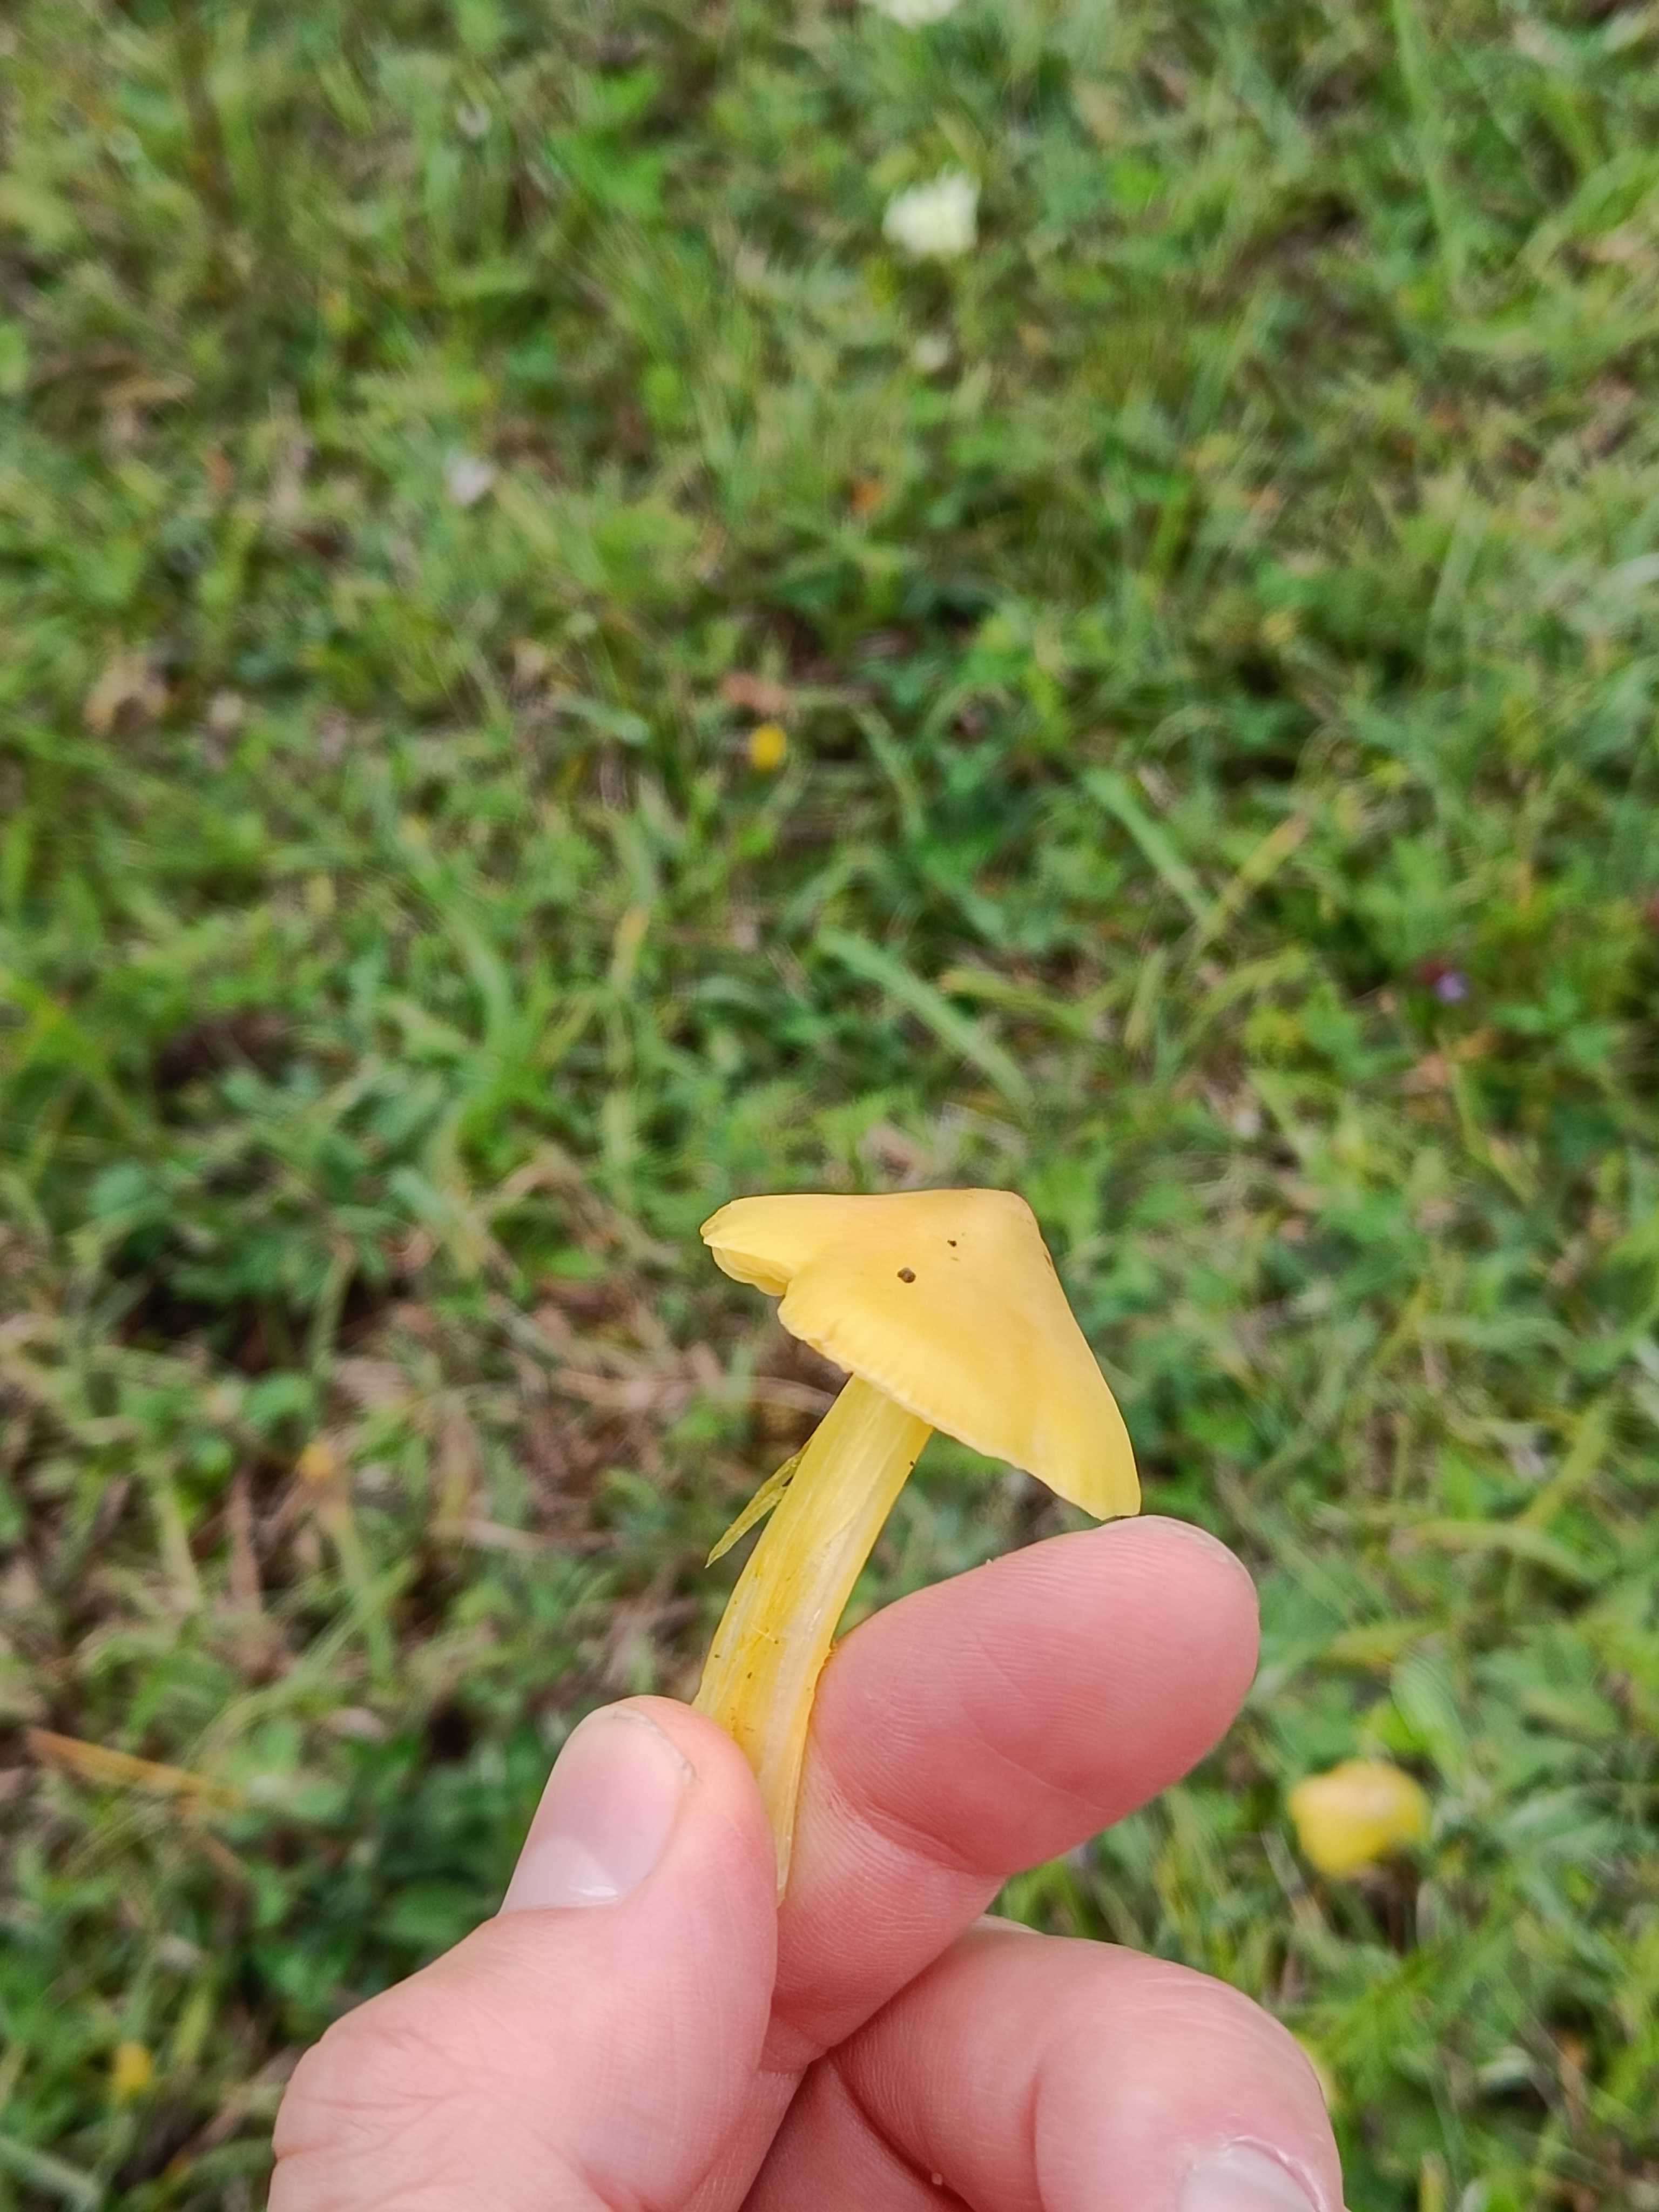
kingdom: Fungi
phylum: Basidiomycota
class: Agaricomycetes
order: Agaricales
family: Hygrophoraceae
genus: Hygrocybe
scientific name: Hygrocybe
